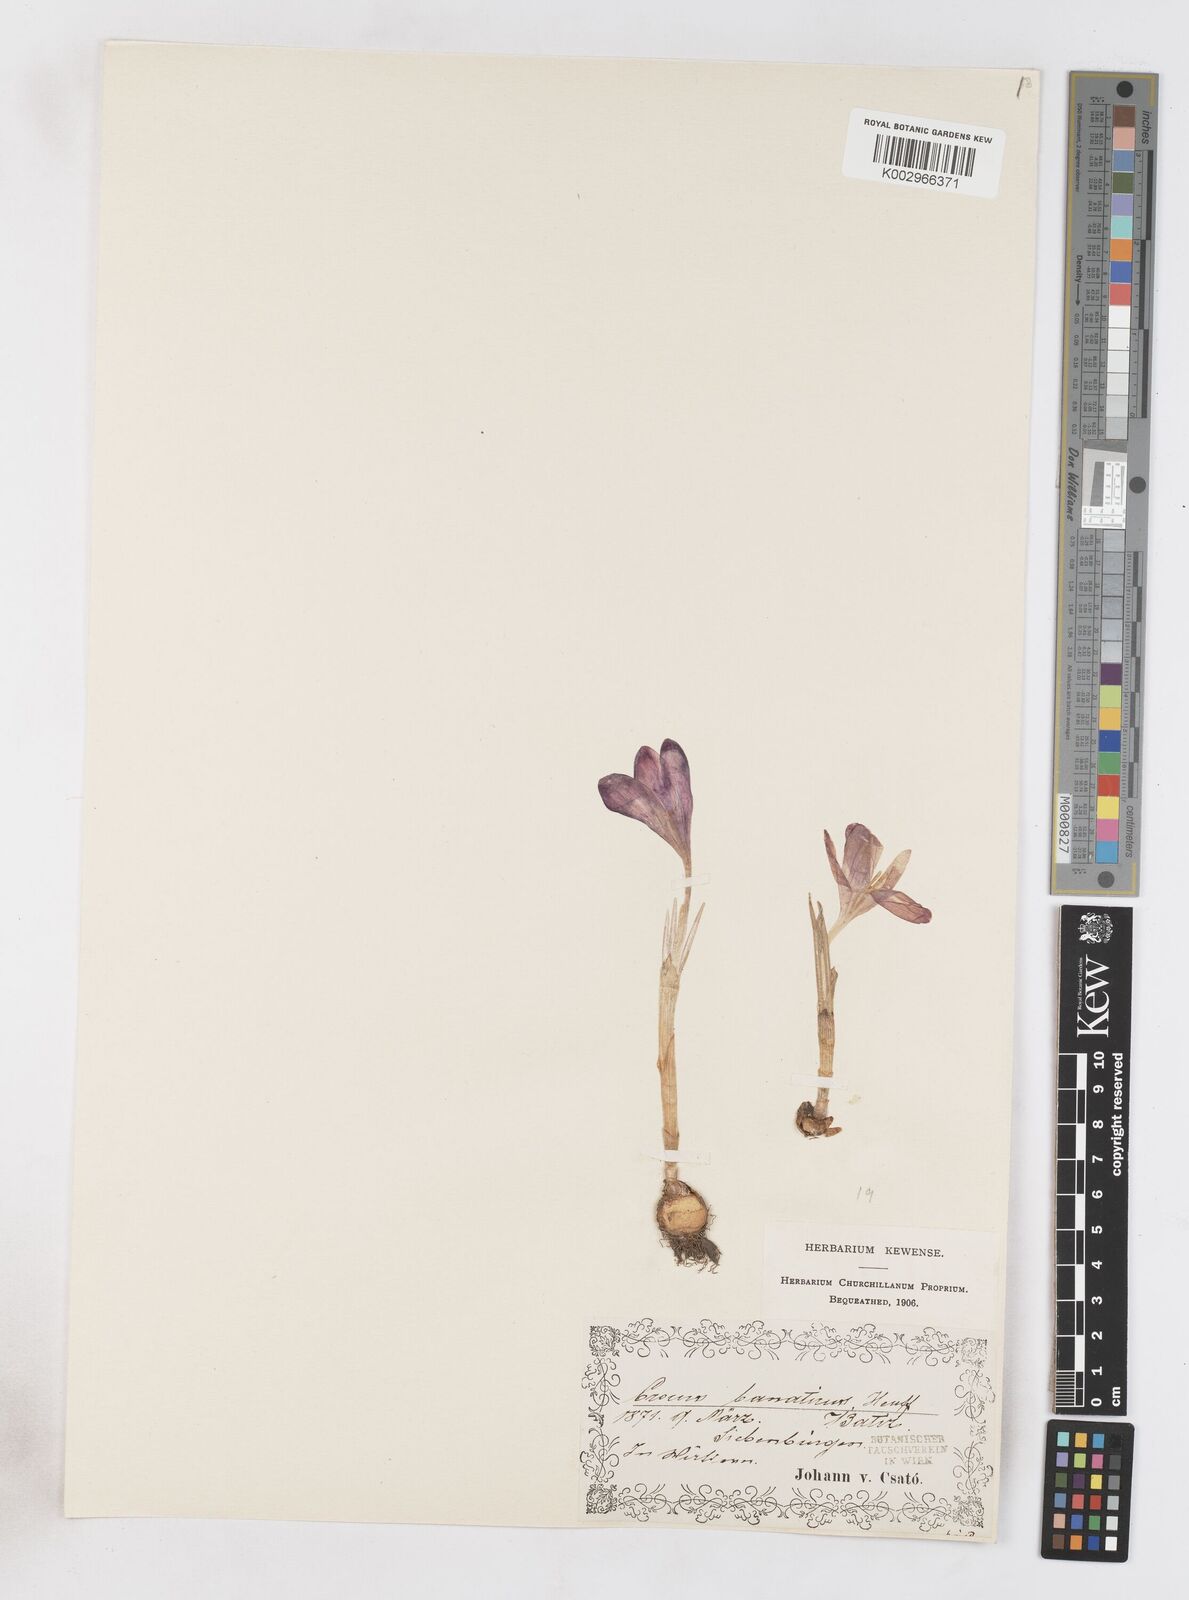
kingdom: Plantae
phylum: Tracheophyta
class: Liliopsida
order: Asparagales
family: Iridaceae
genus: Crocus
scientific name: Crocus vernus
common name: Spring crocus
